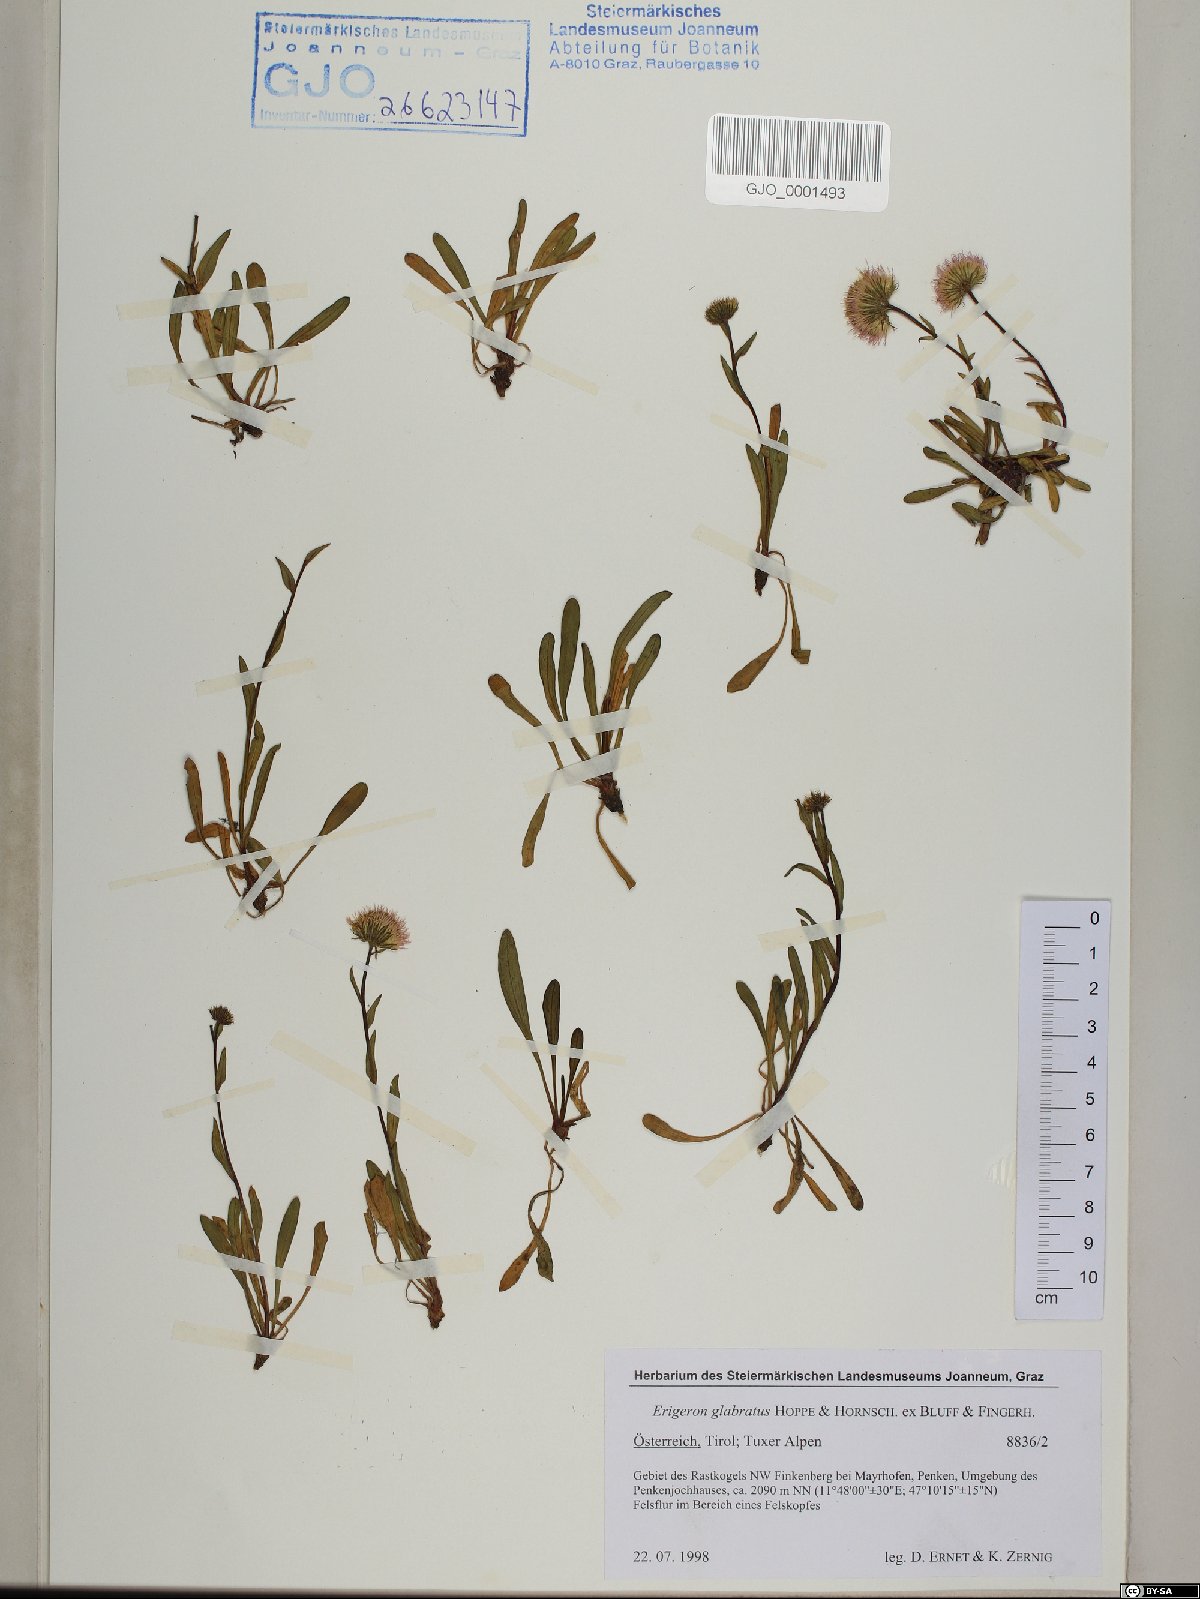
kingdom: Plantae
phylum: Tracheophyta
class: Magnoliopsida
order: Asterales
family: Asteraceae
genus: Erigeron
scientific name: Erigeron glabratus
